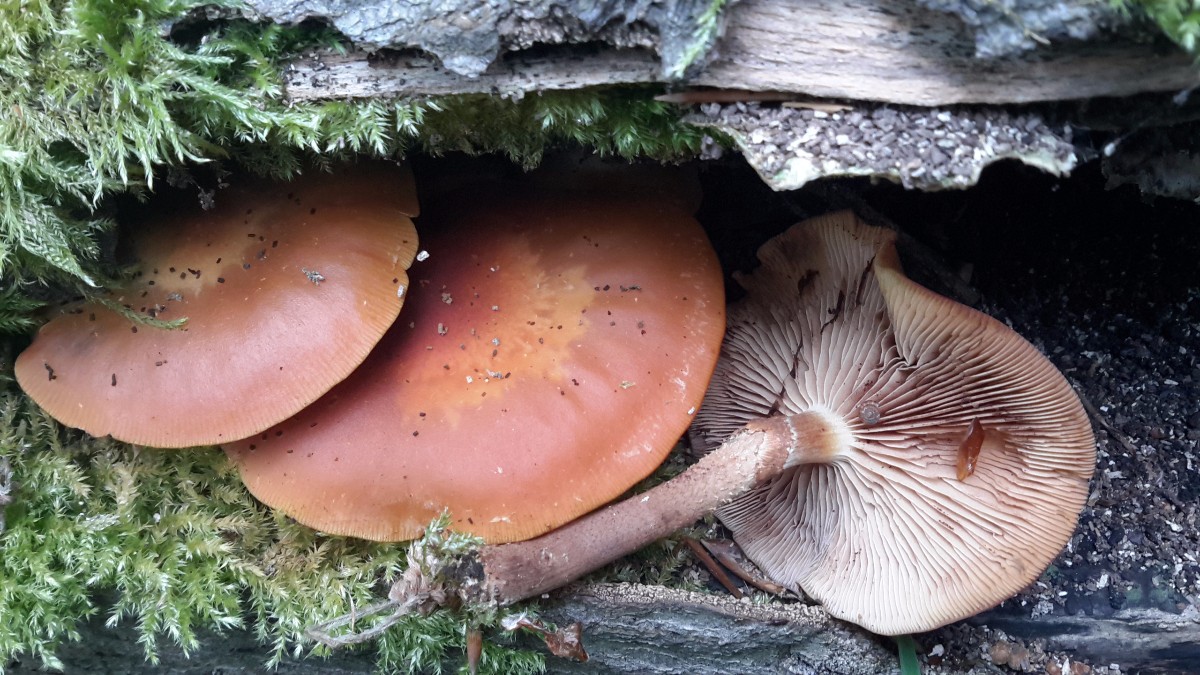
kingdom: Fungi
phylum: Basidiomycota
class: Agaricomycetes
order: Agaricales
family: Strophariaceae
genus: Kuehneromyces
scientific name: Kuehneromyces mutabilis
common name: foranderlig skælhat
